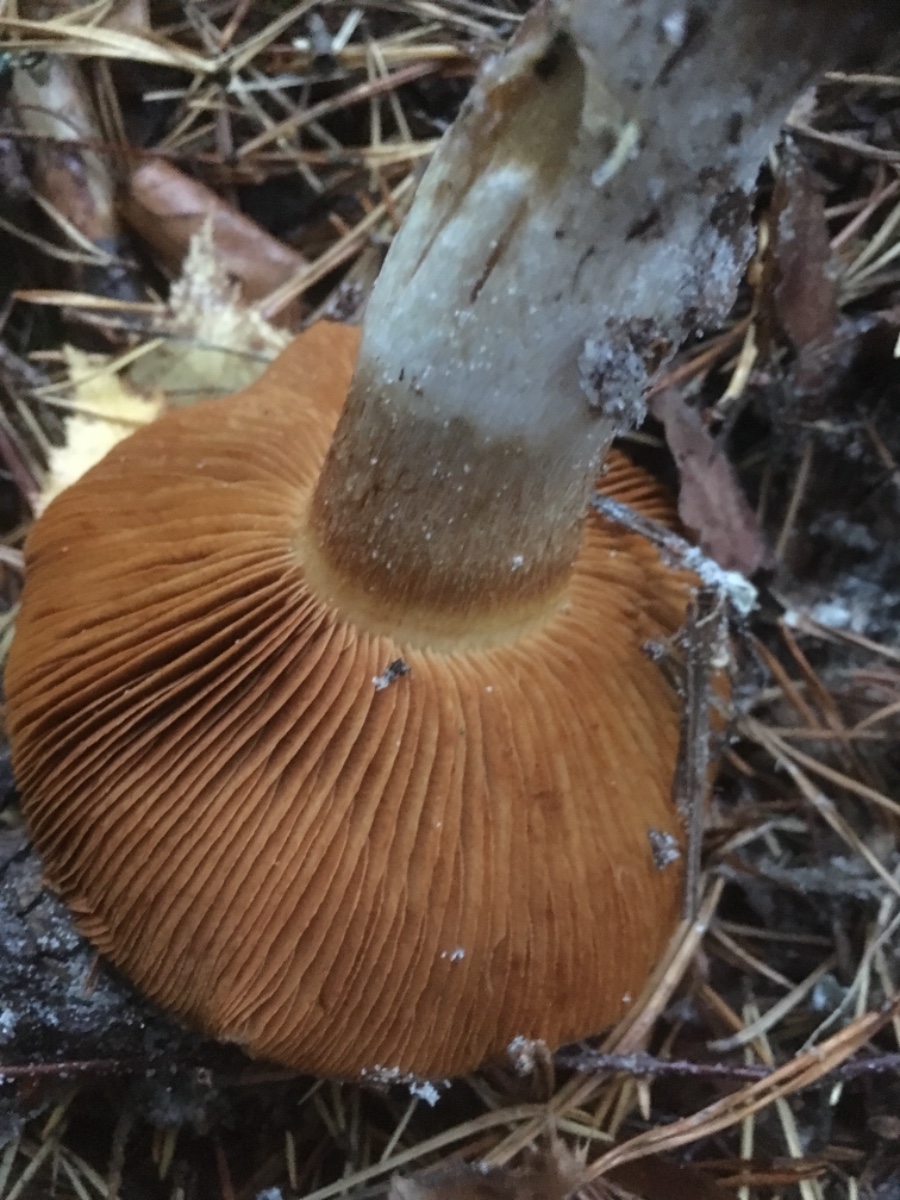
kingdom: Fungi
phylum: Basidiomycota
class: Agaricomycetes
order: Agaricales
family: Cortinariaceae
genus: Cortinarius
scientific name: Cortinarius
